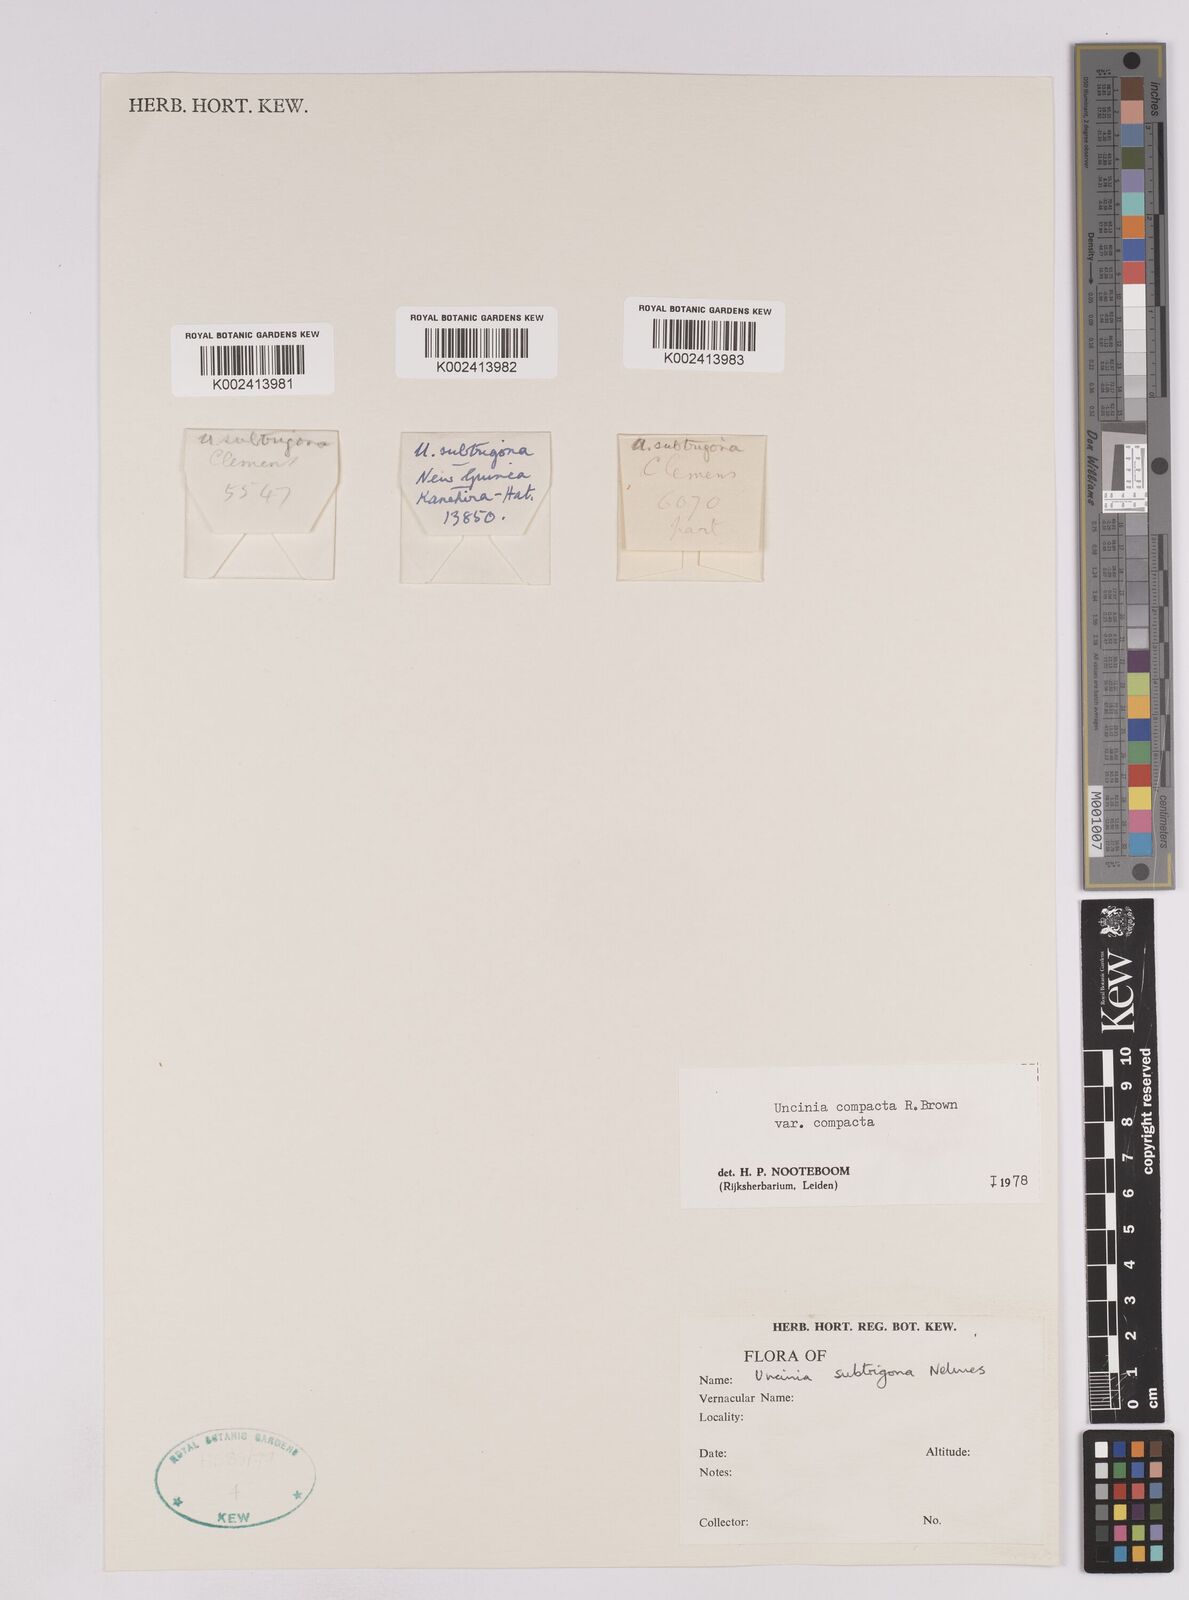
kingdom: Plantae
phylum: Tracheophyta
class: Liliopsida
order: Poales
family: Cyperaceae
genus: Carex
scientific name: Carex austrocompacta
